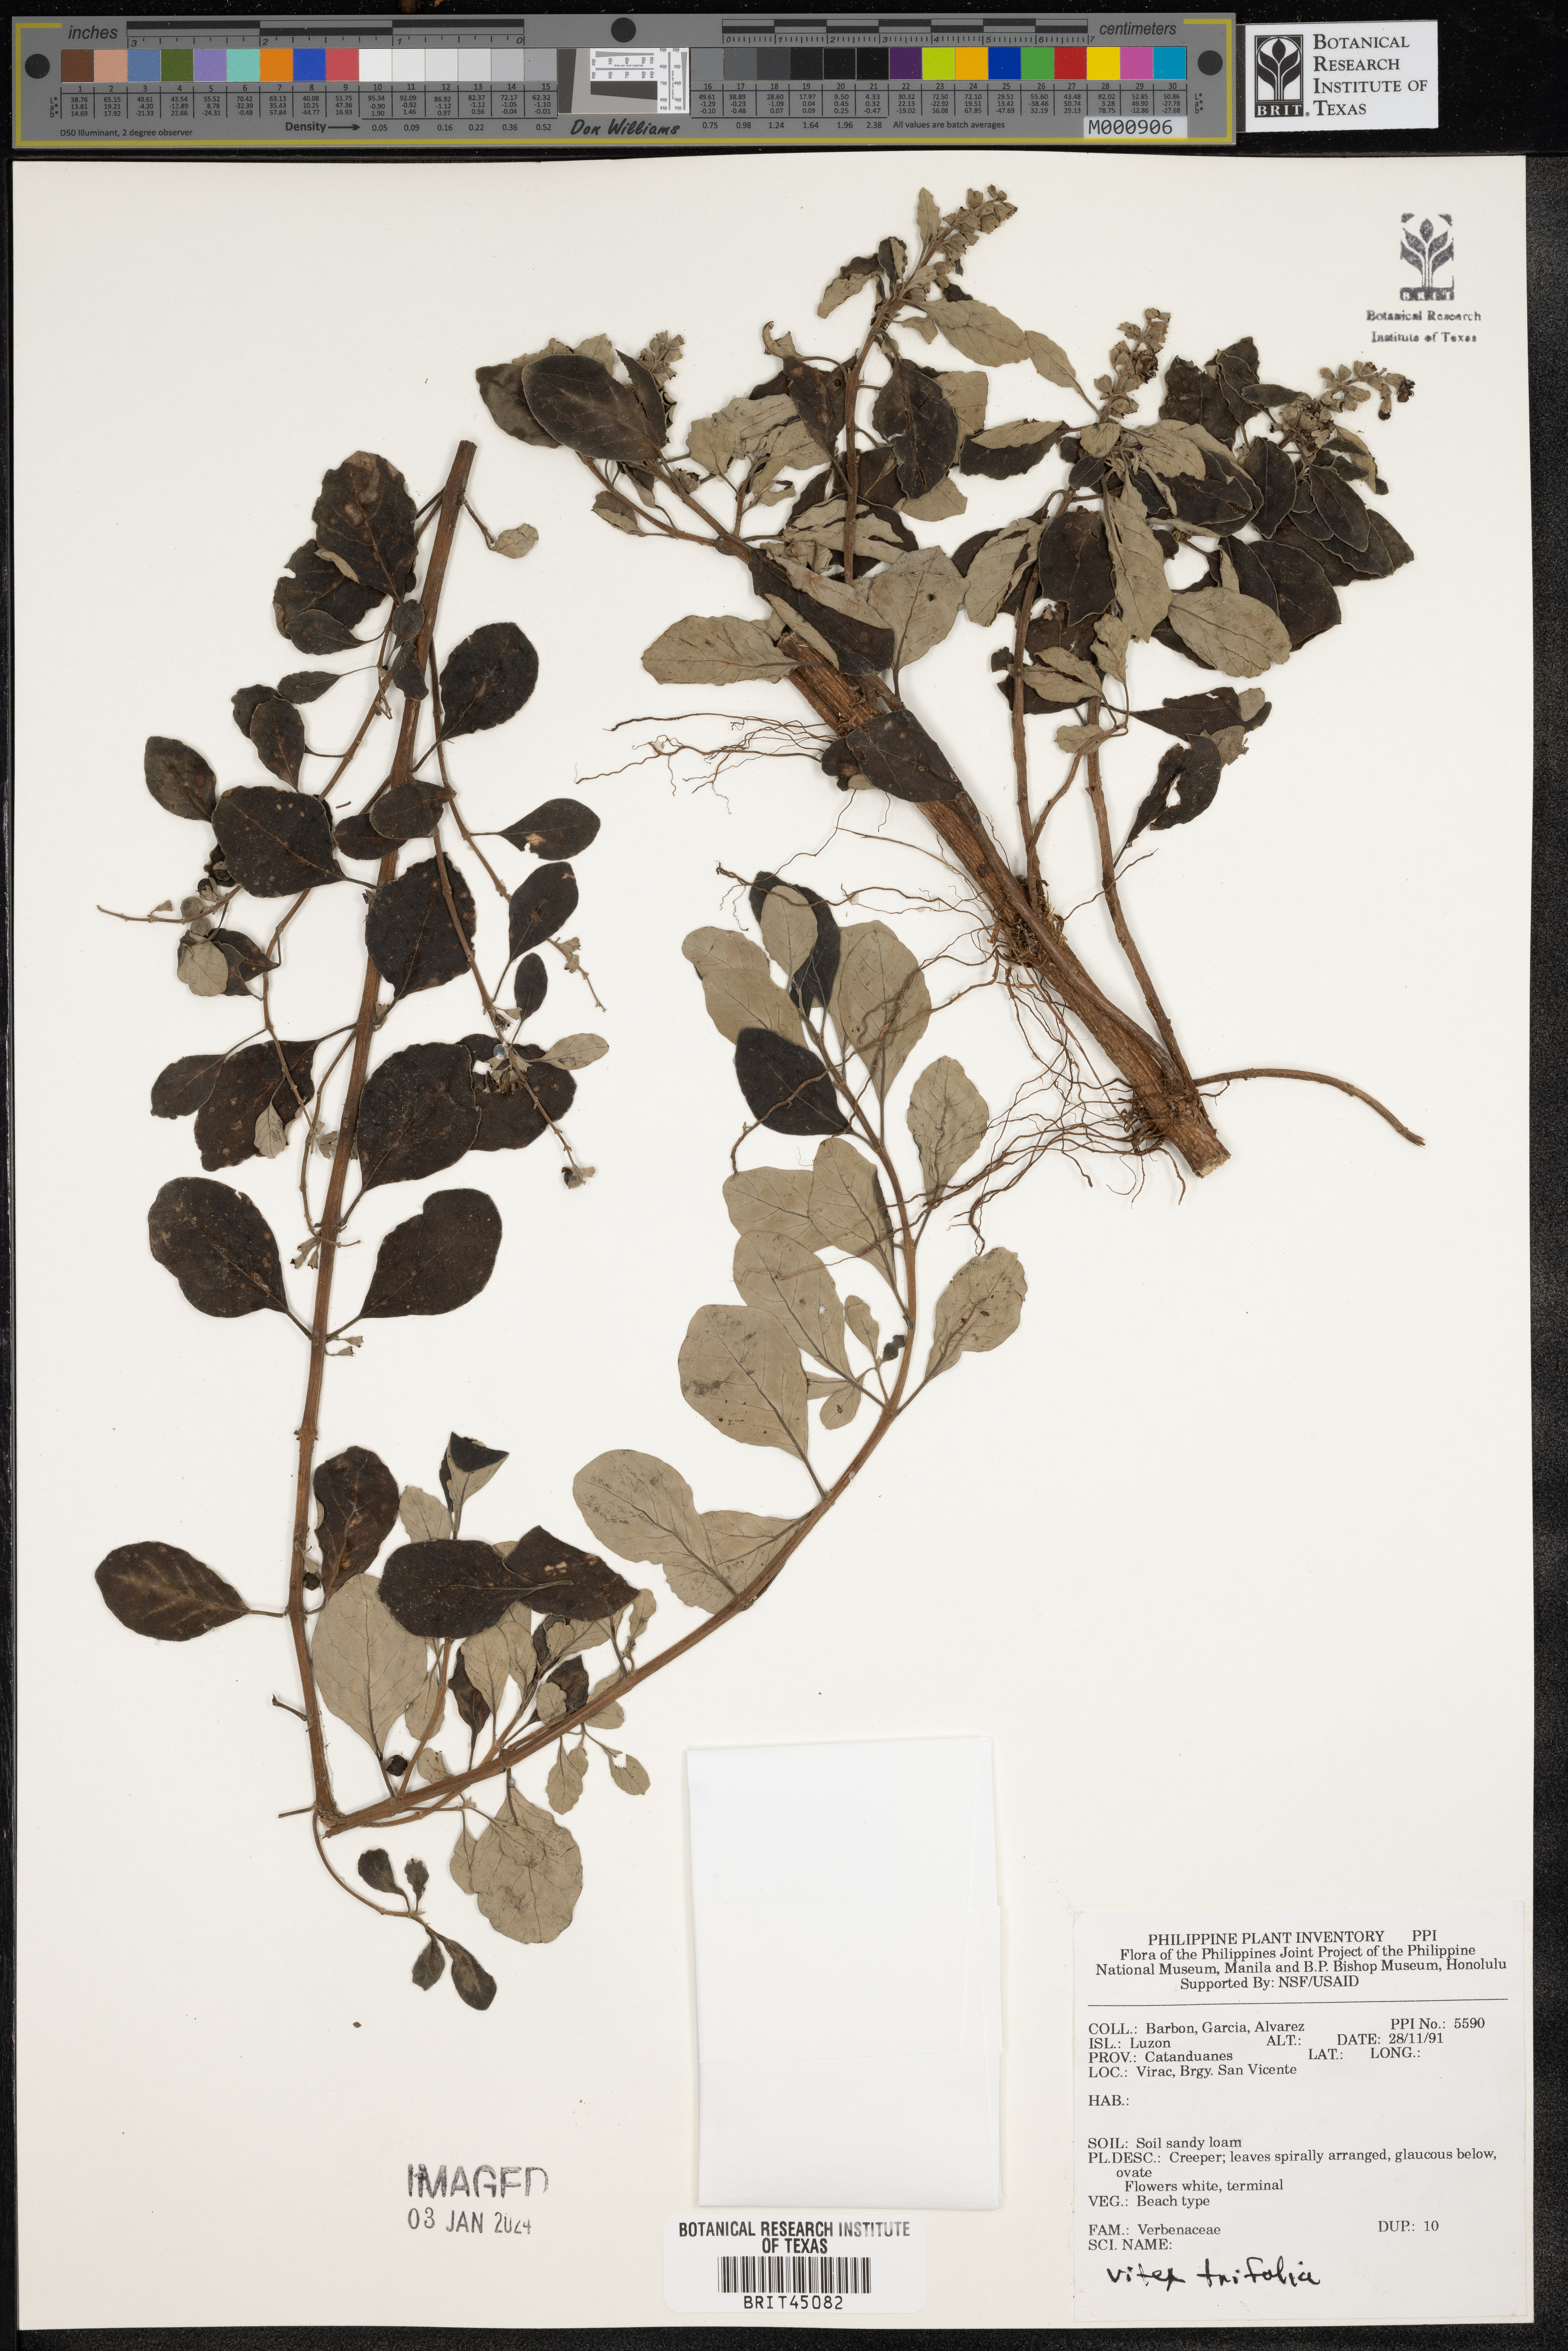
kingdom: Plantae
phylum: Tracheophyta
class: Magnoliopsida
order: Lamiales
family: Lamiaceae
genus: Vitex
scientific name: Vitex trifolia
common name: Simpleleaf chastetree
